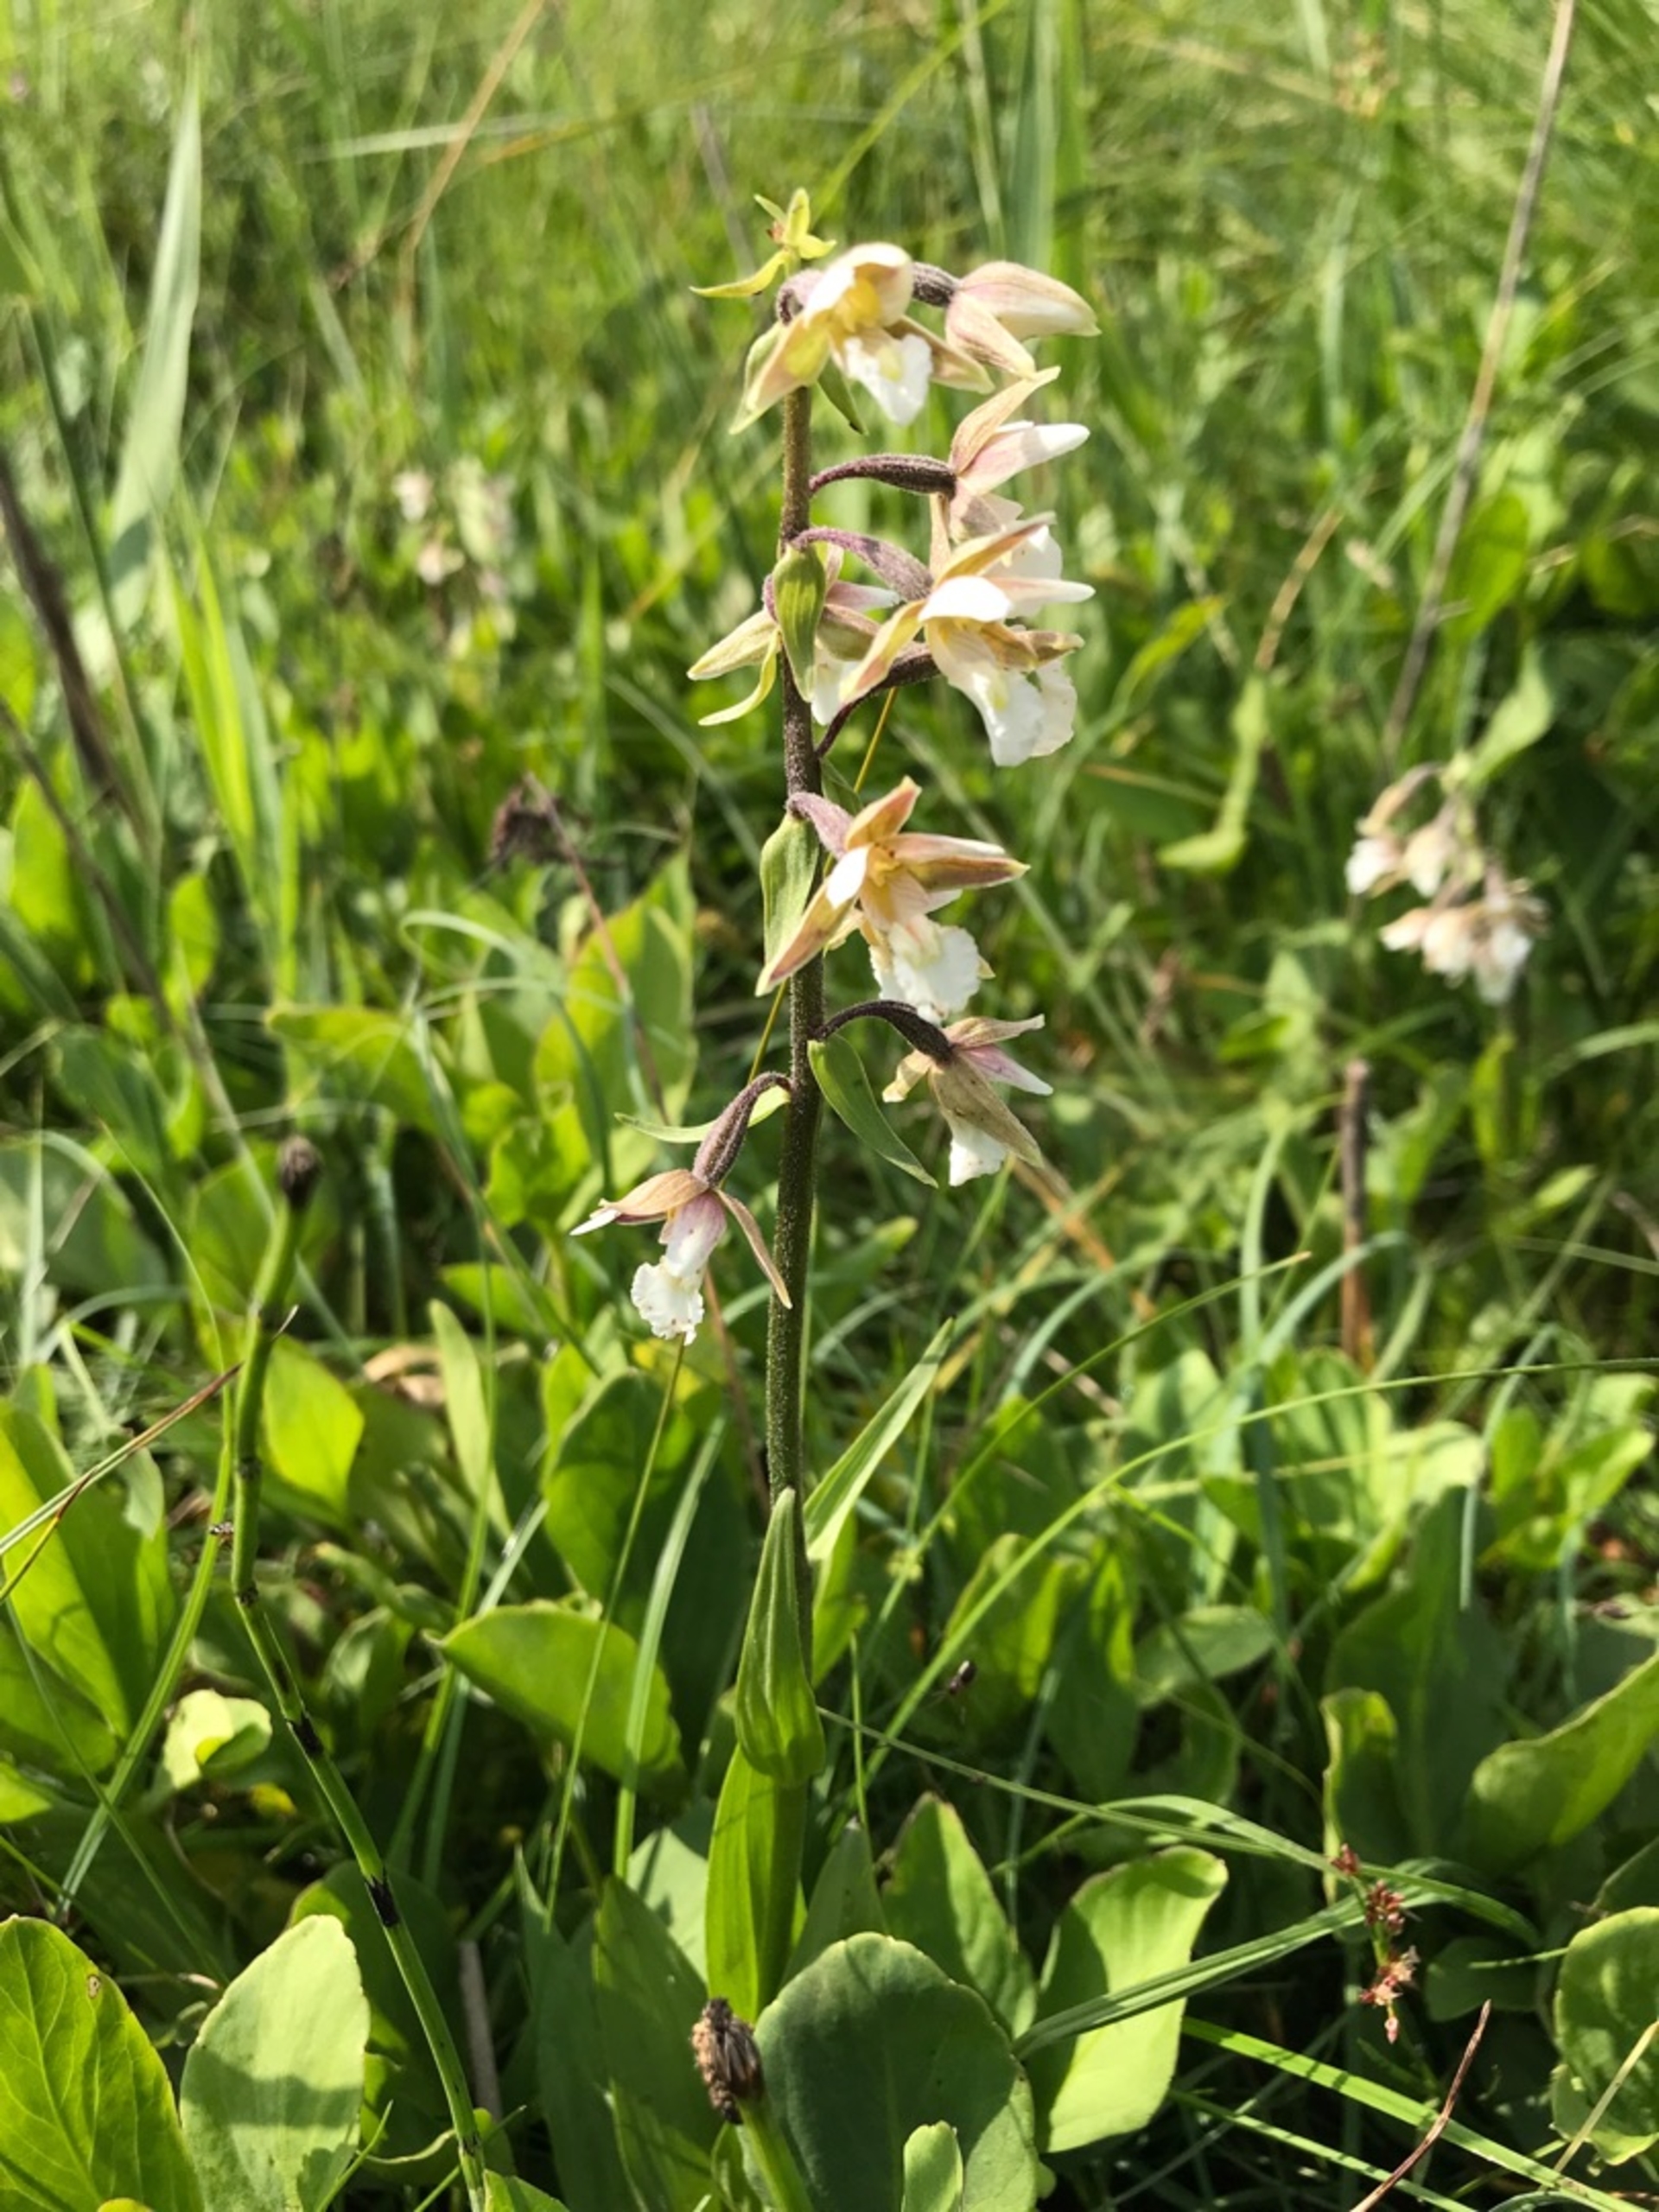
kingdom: Plantae
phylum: Tracheophyta
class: Liliopsida
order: Asparagales
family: Orchidaceae
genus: Epipactis
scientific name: Epipactis palustris
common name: Sump-hullæbe
